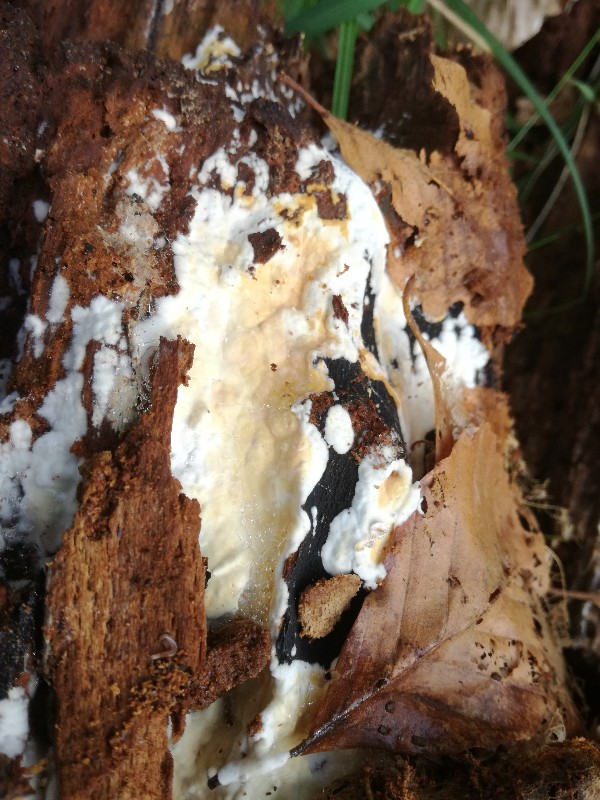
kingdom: Fungi
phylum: Basidiomycota
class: Agaricomycetes
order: Polyporales
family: Dacryobolaceae
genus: Dacryobolus
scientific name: Dacryobolus karstenii
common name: glat vulkanskorpe
